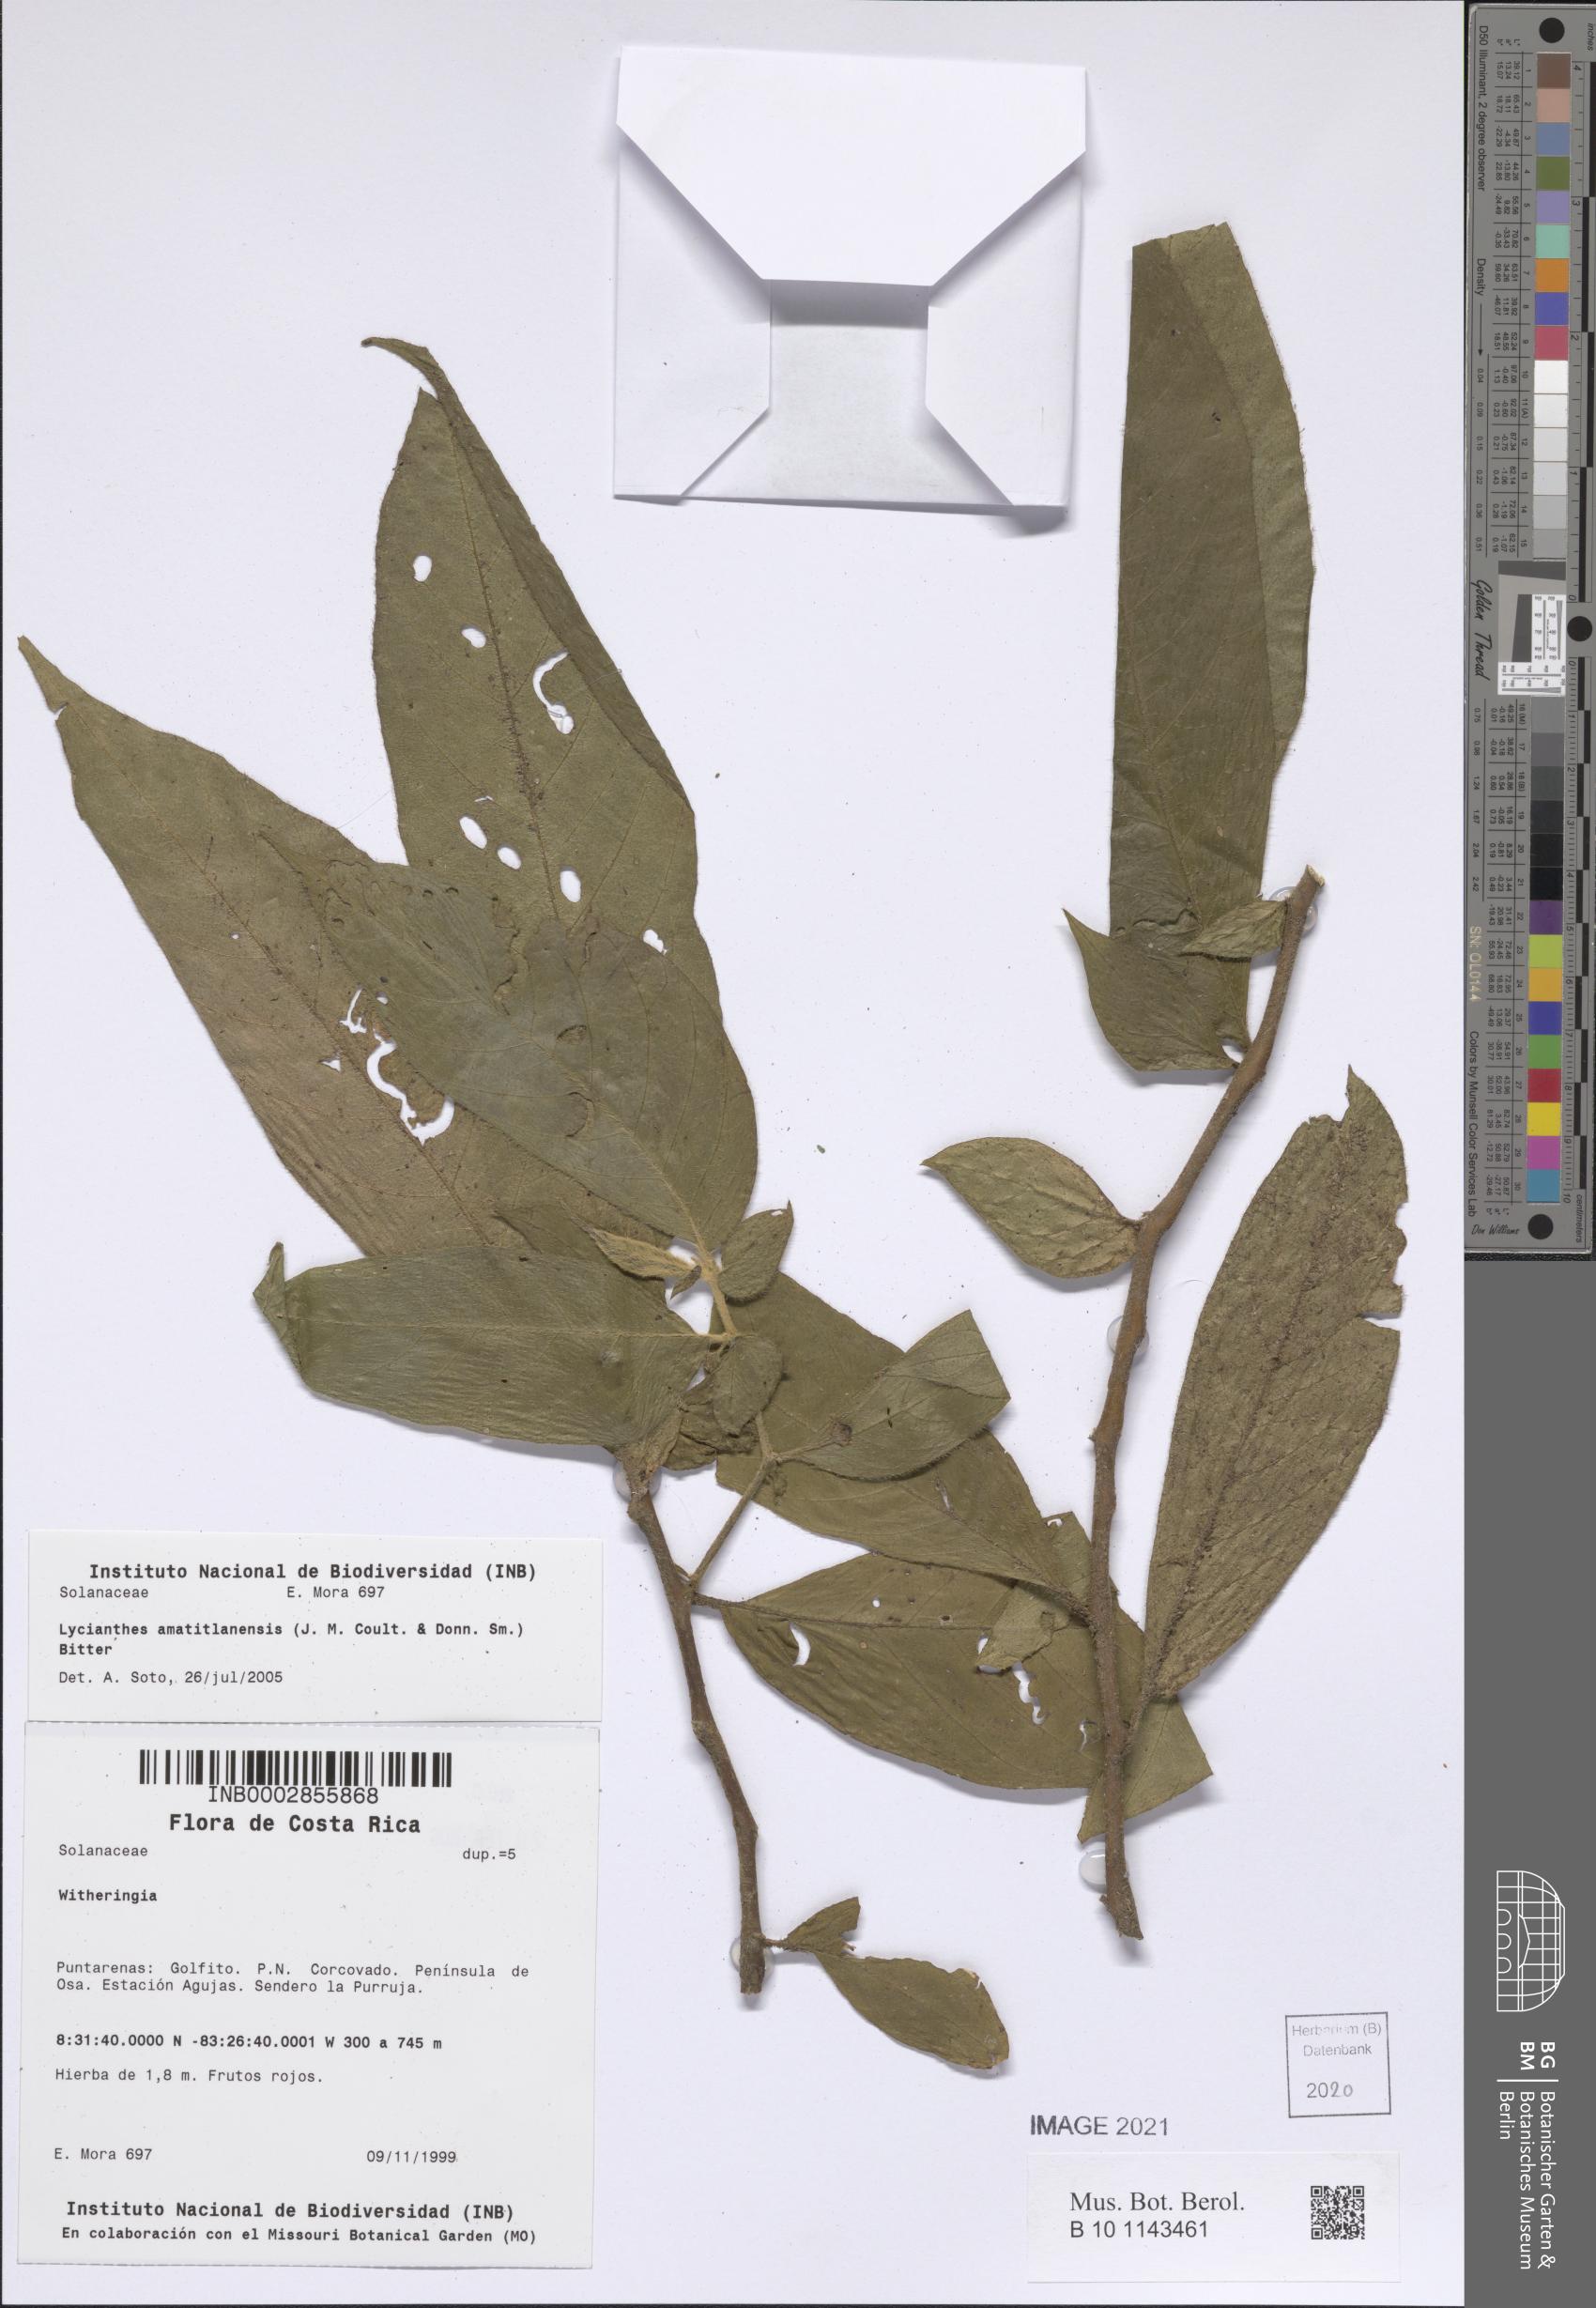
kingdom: Plantae
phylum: Tracheophyta
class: Magnoliopsida
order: Solanales
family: Solanaceae
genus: Lycianthes
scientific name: Lycianthes amatitlanensis
